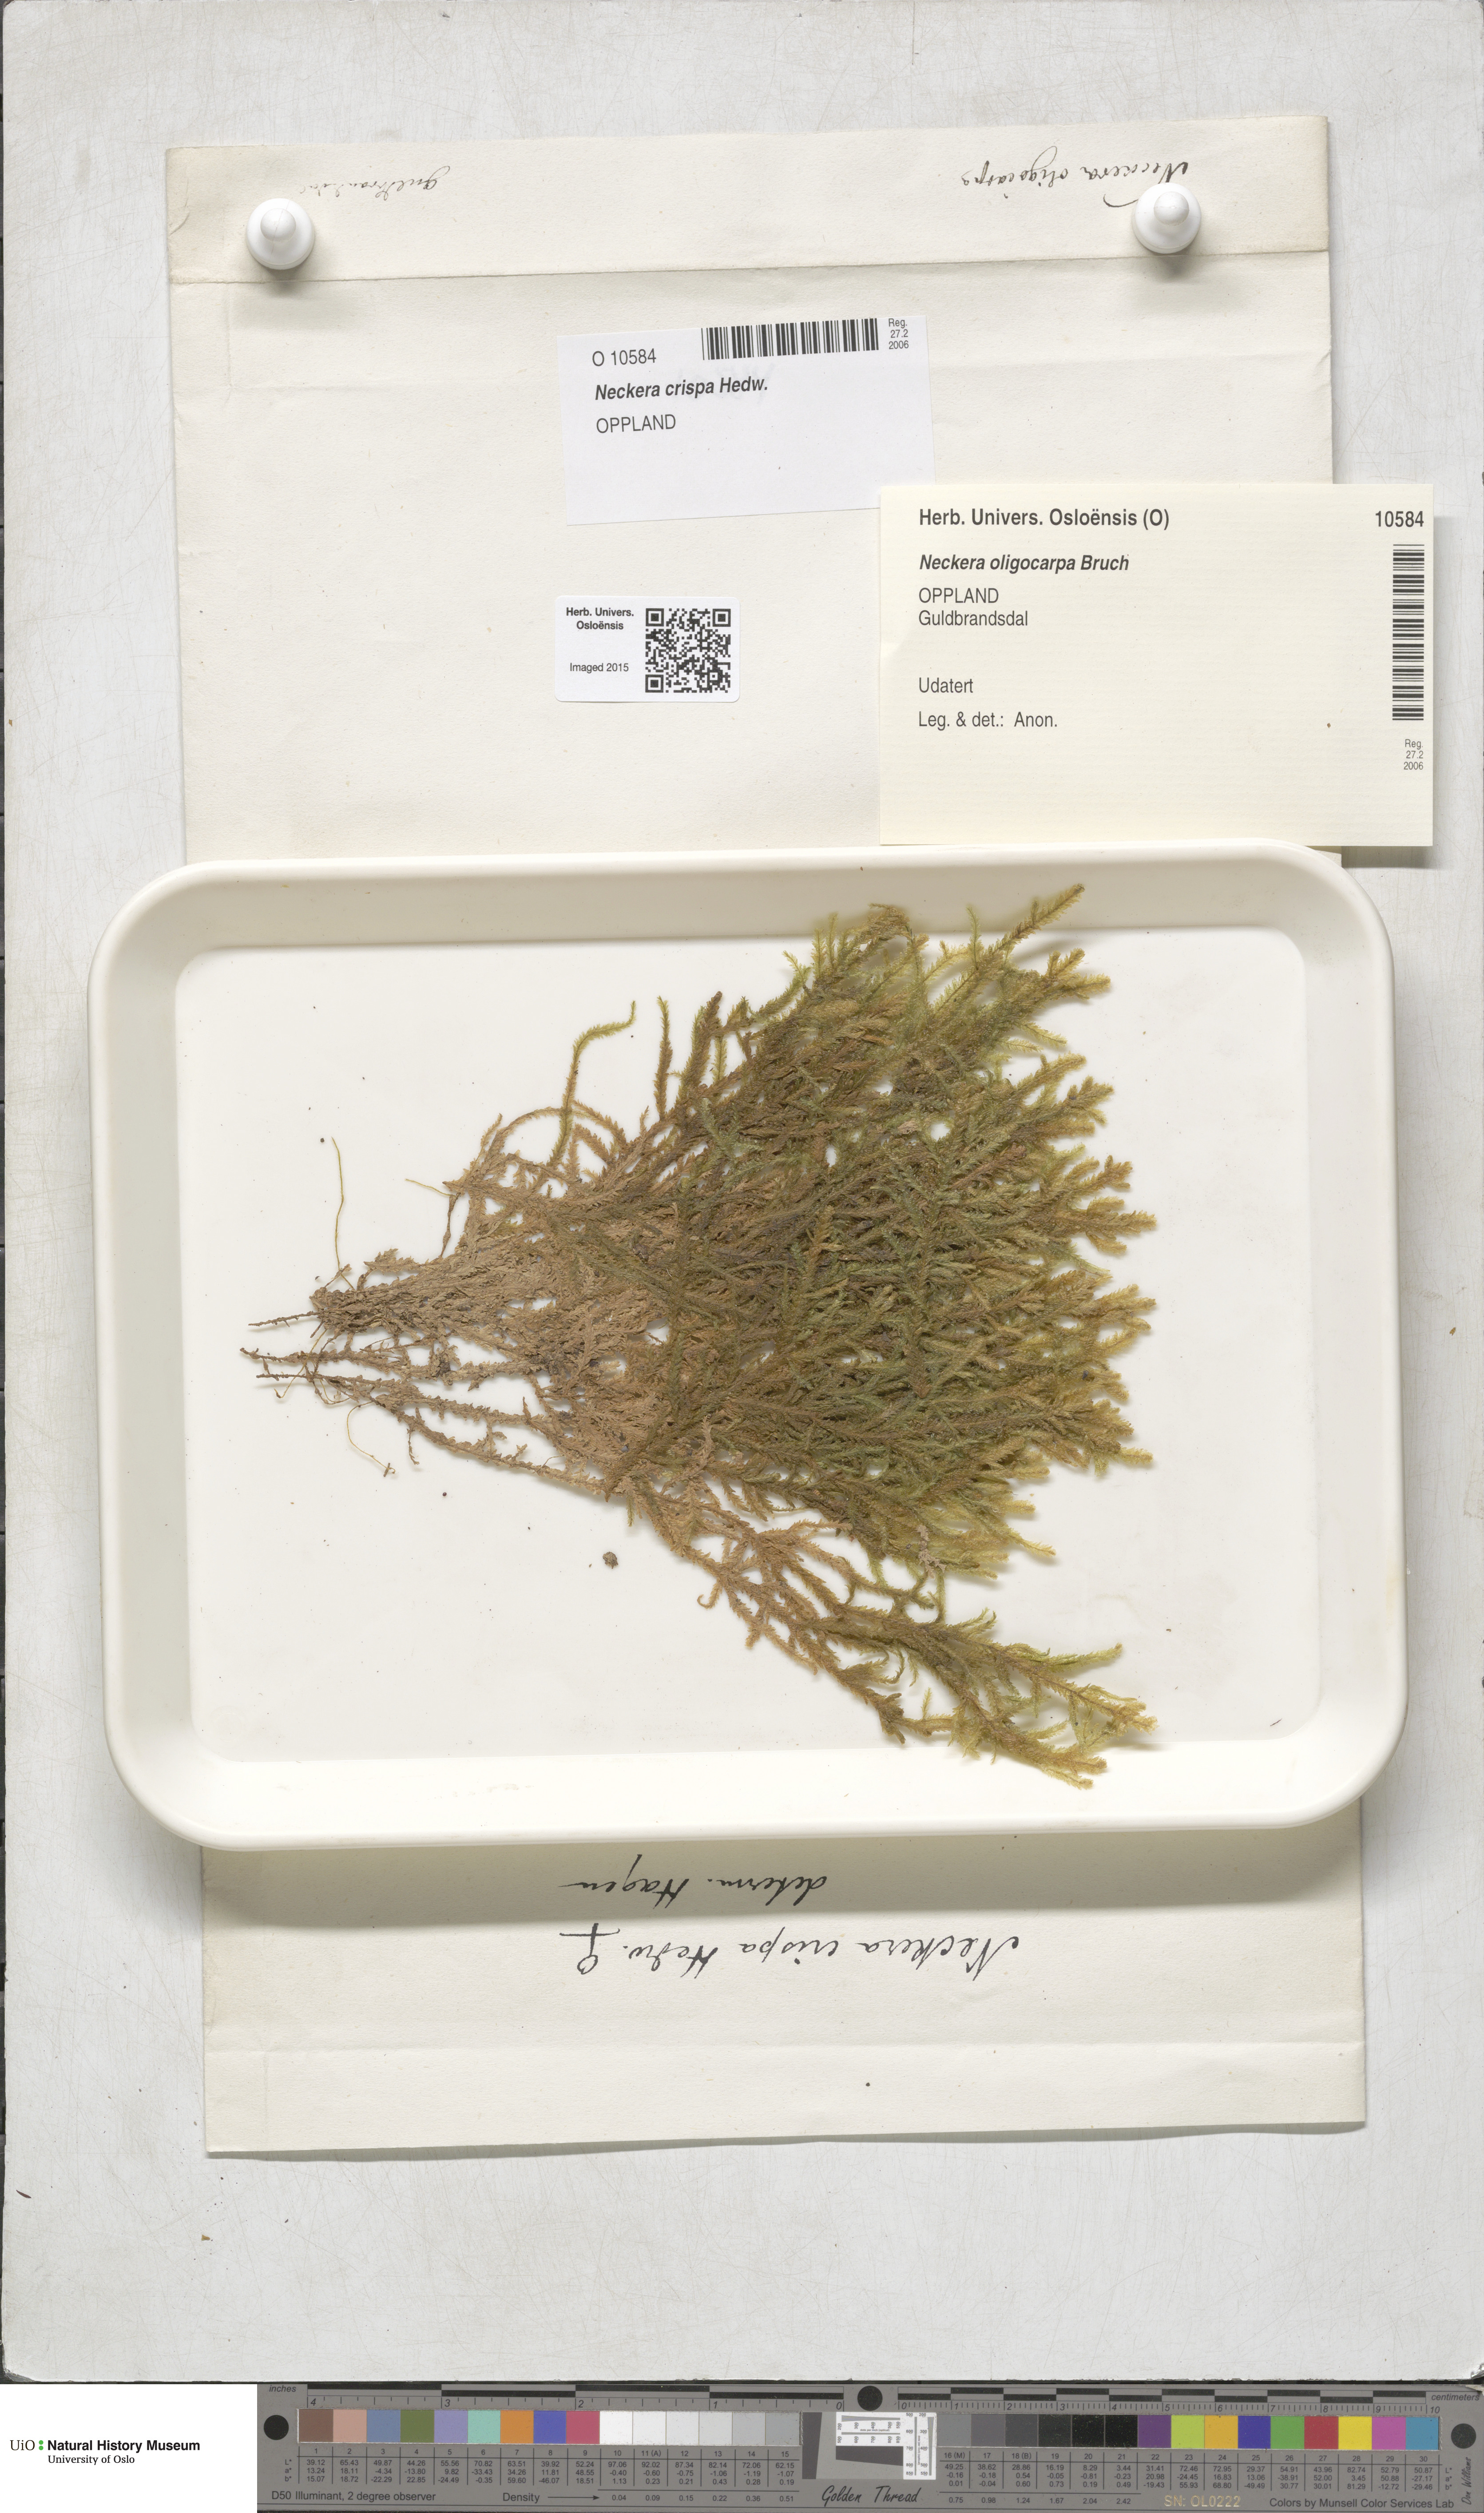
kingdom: Plantae
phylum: Bryophyta
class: Bryopsida
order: Hypnales
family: Neckeraceae
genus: Exsertotheca
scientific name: Exsertotheca crispa
